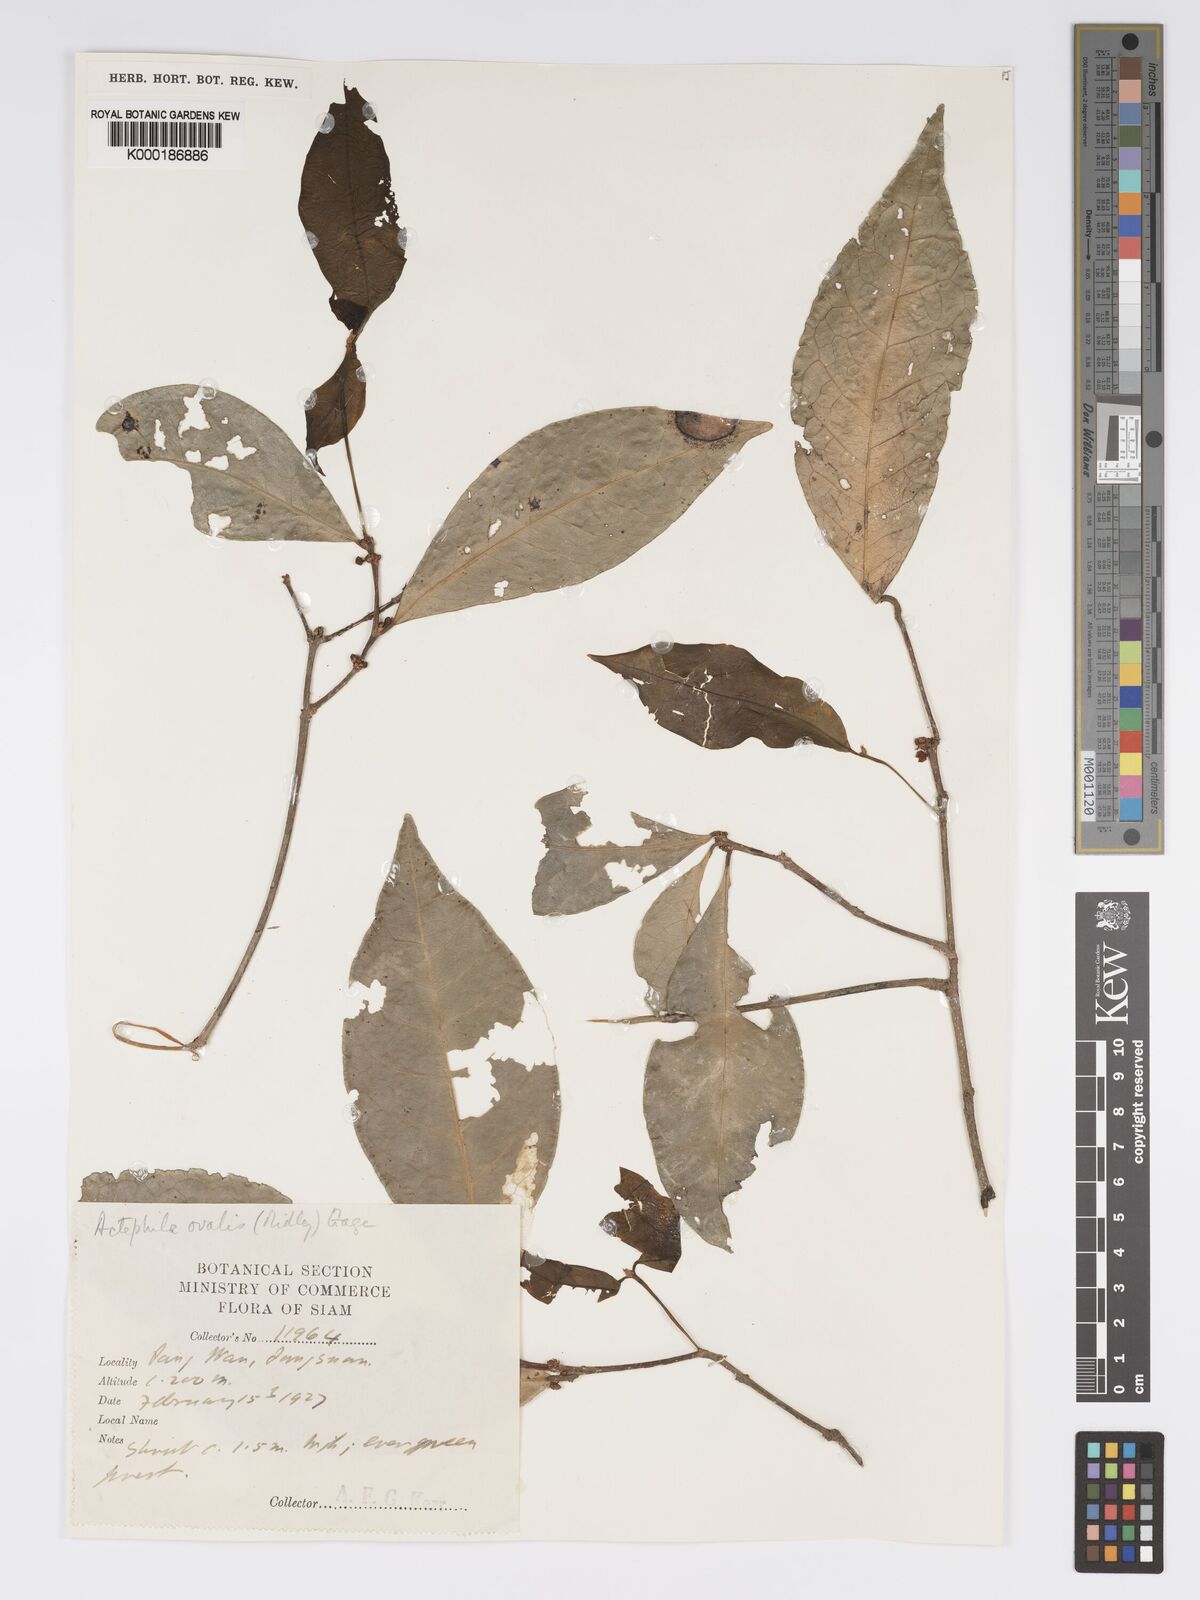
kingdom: Plantae
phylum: Tracheophyta
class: Magnoliopsida
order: Malpighiales
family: Phyllanthaceae
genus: Actephila
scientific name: Actephila ovalis
